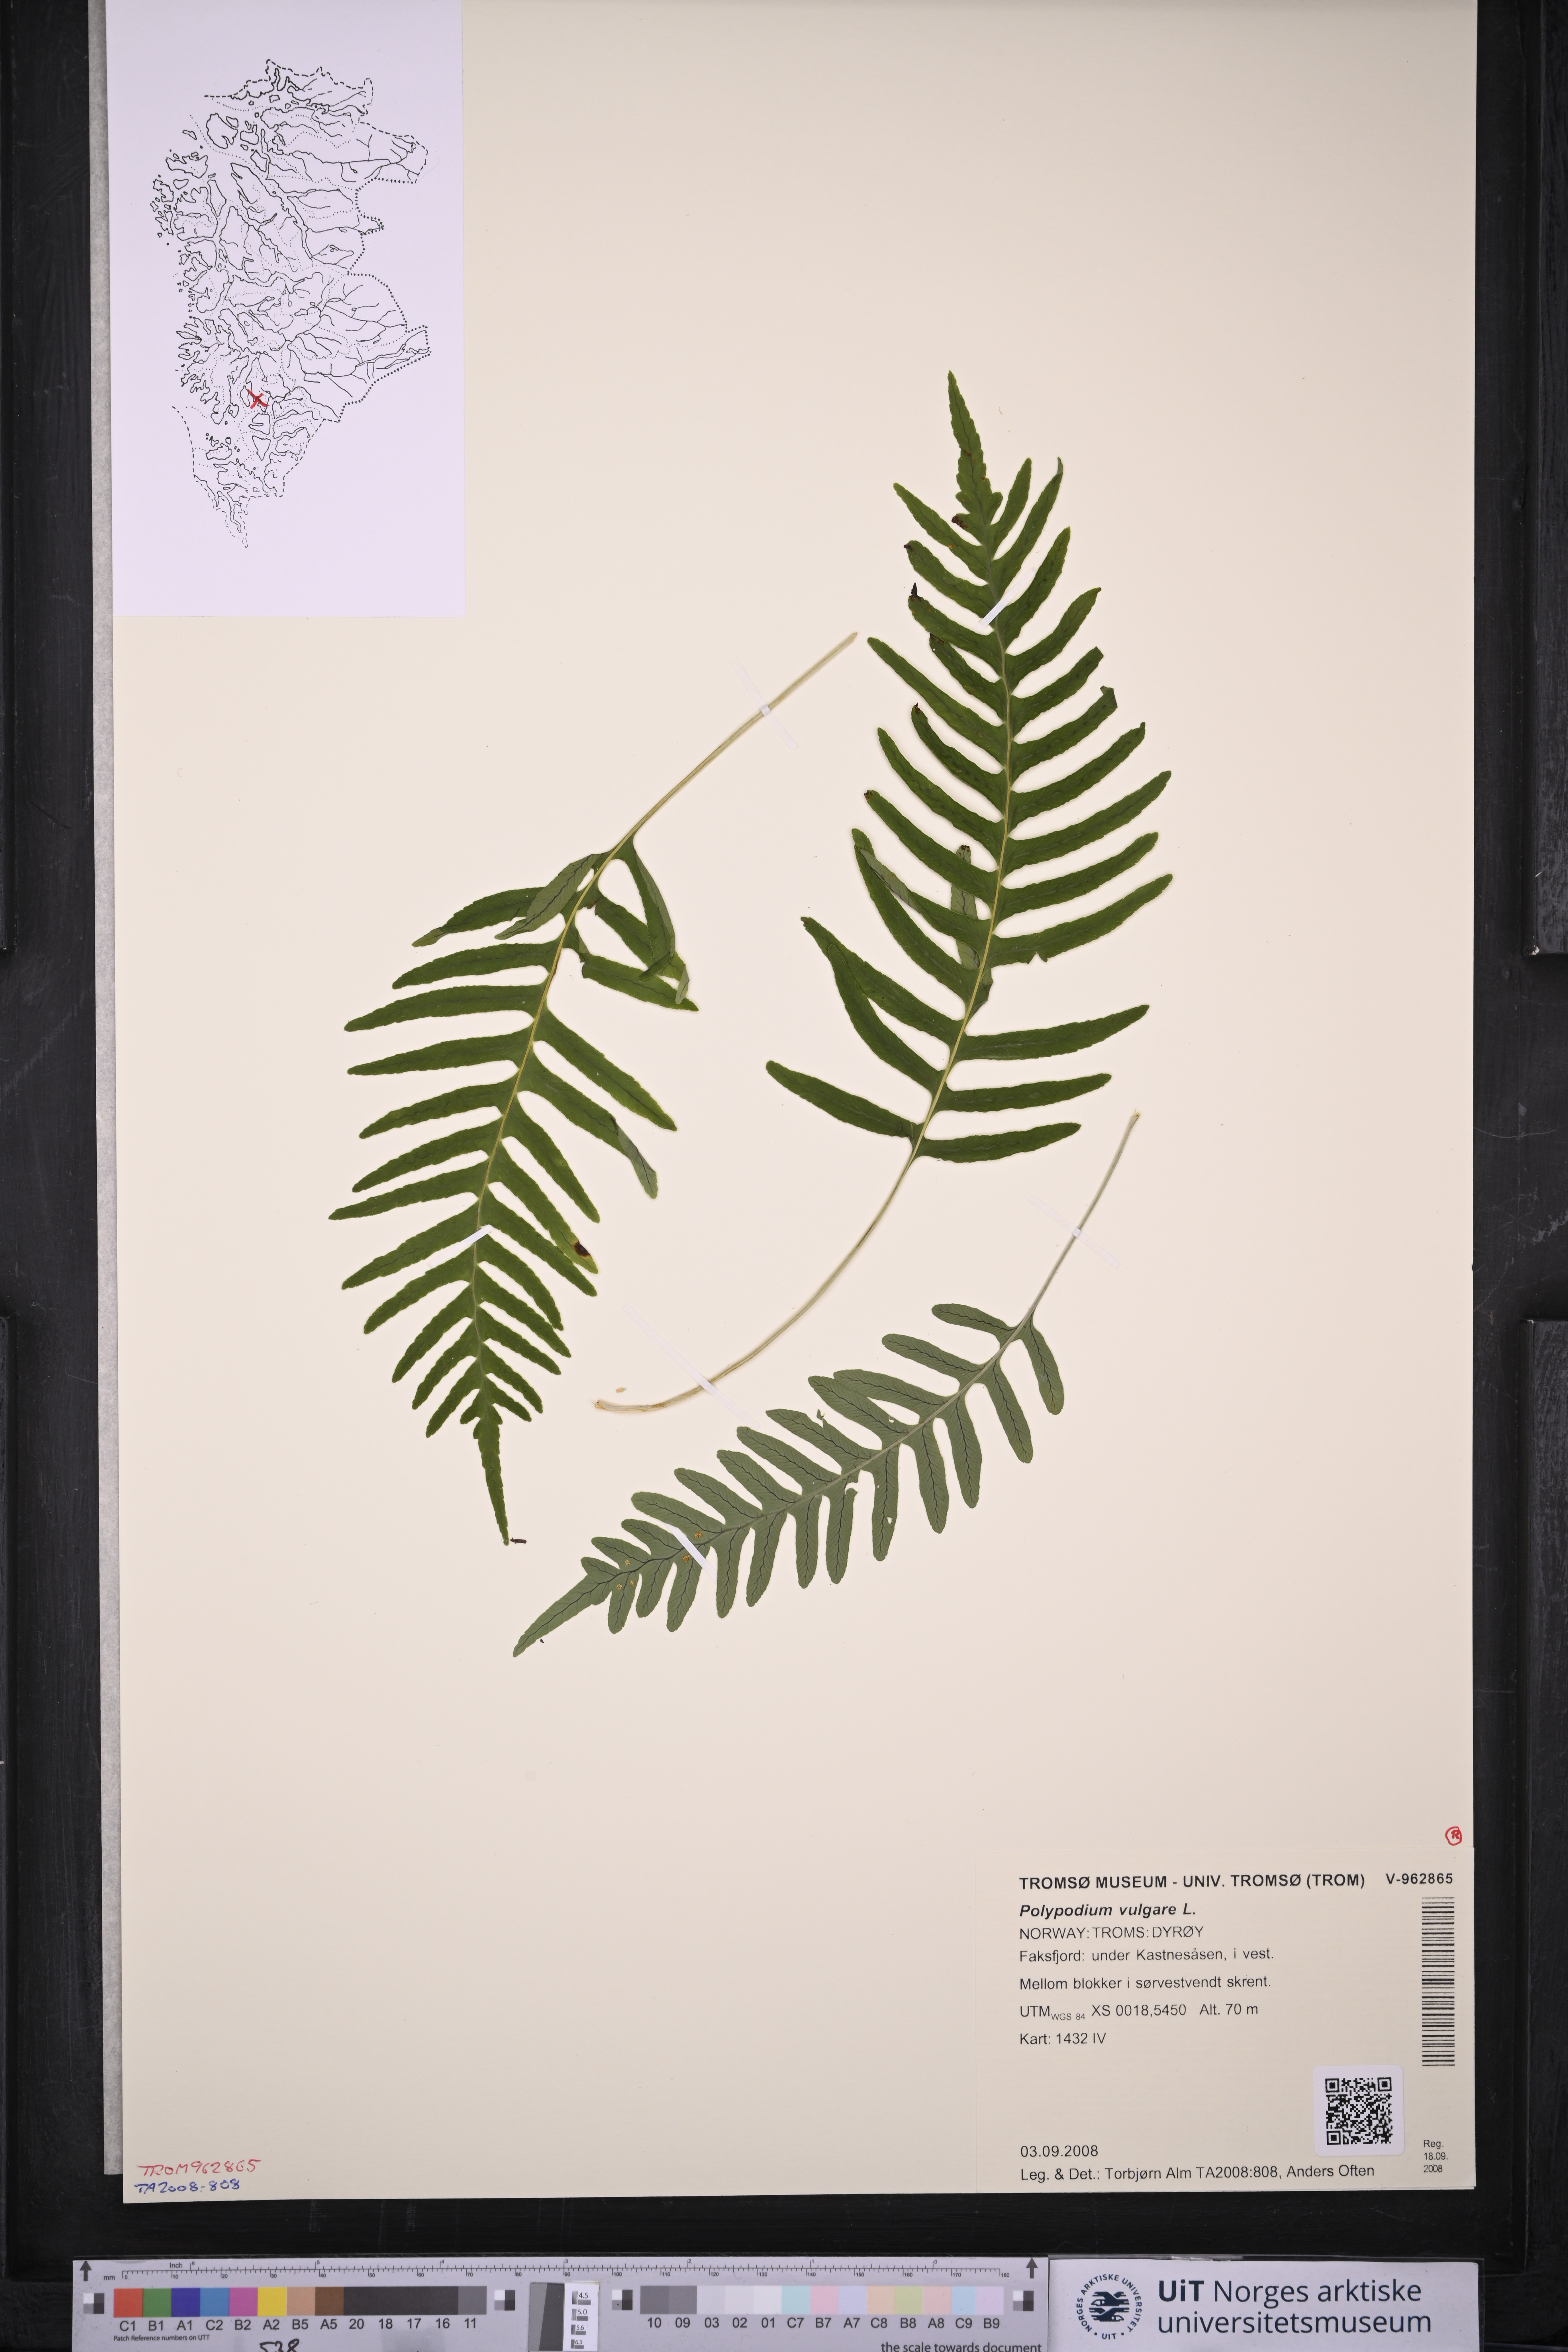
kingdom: Plantae
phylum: Tracheophyta
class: Polypodiopsida
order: Polypodiales
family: Polypodiaceae
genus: Polypodium
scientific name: Polypodium vulgare
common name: Common polypody
